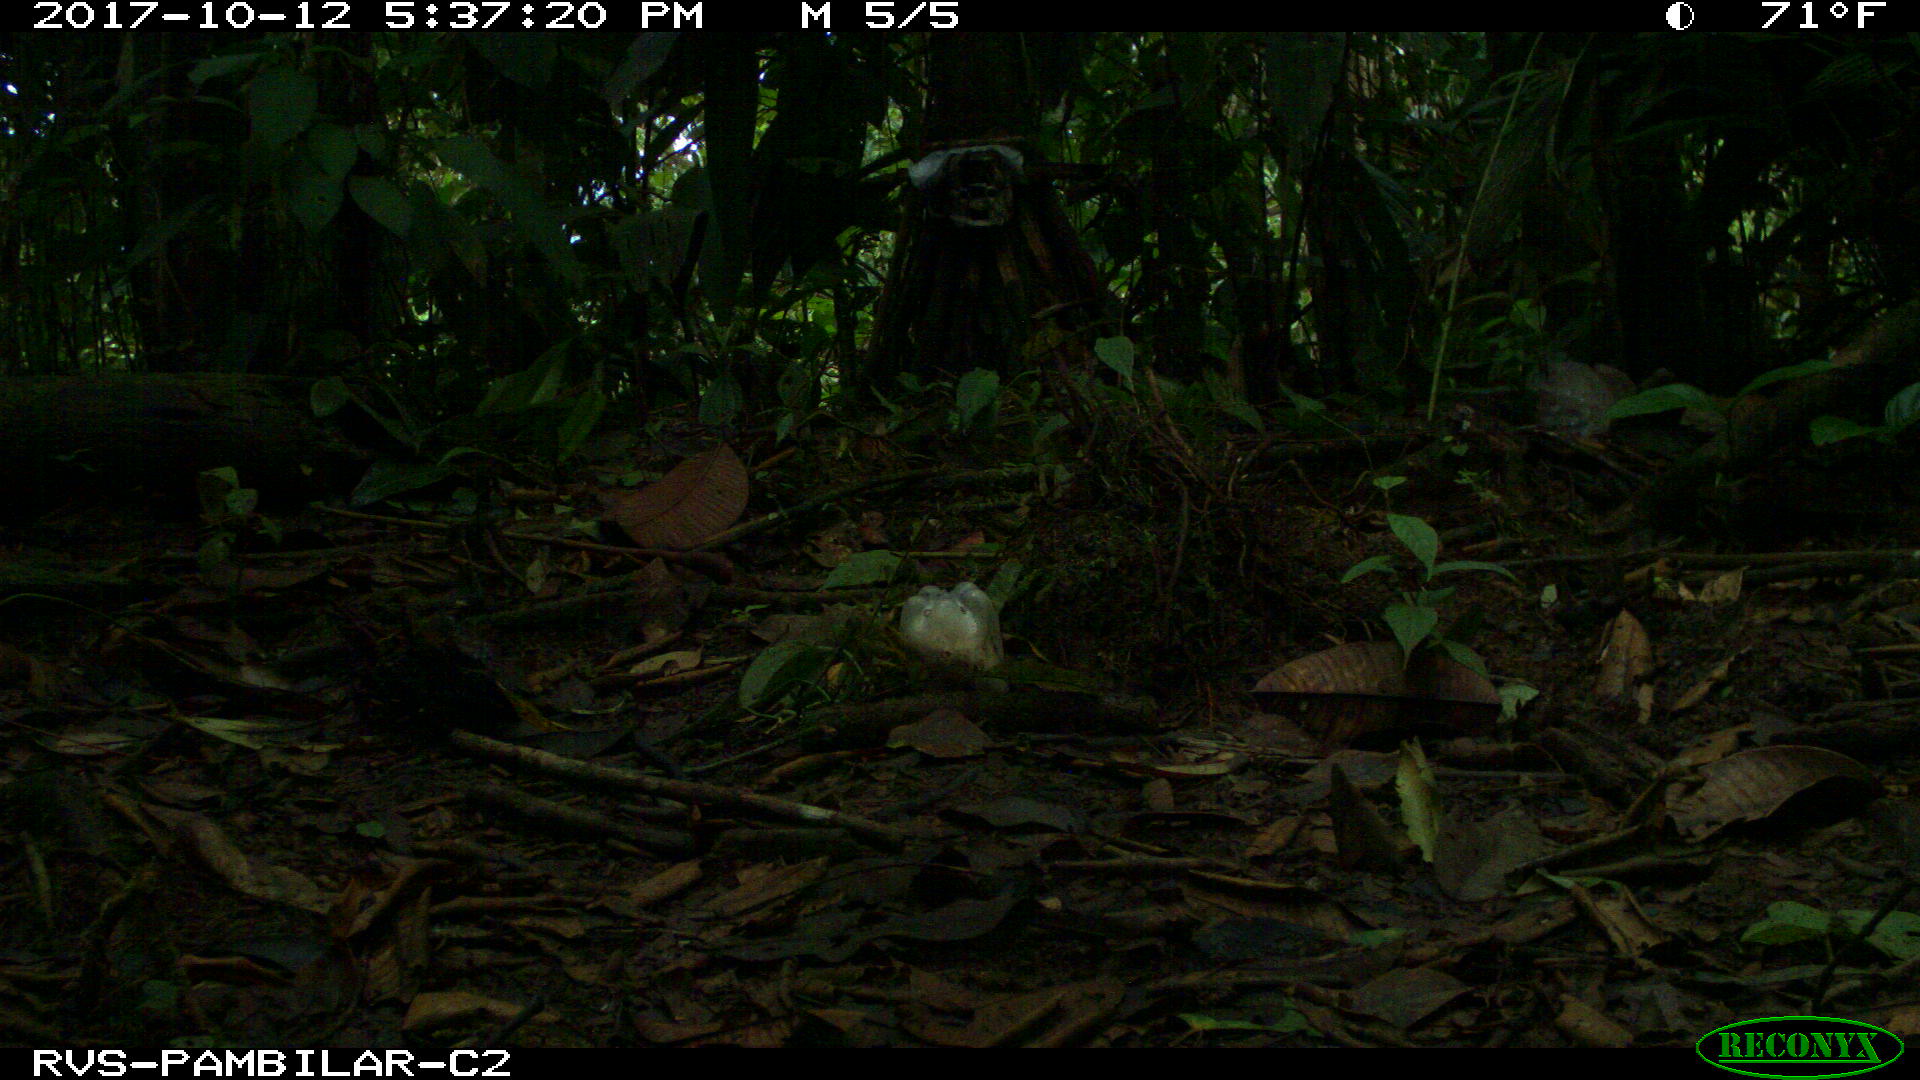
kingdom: Animalia
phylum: Chordata
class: Mammalia
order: Rodentia
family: Dasyproctidae
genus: Dasyprocta
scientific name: Dasyprocta punctata
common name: Central american agouti
